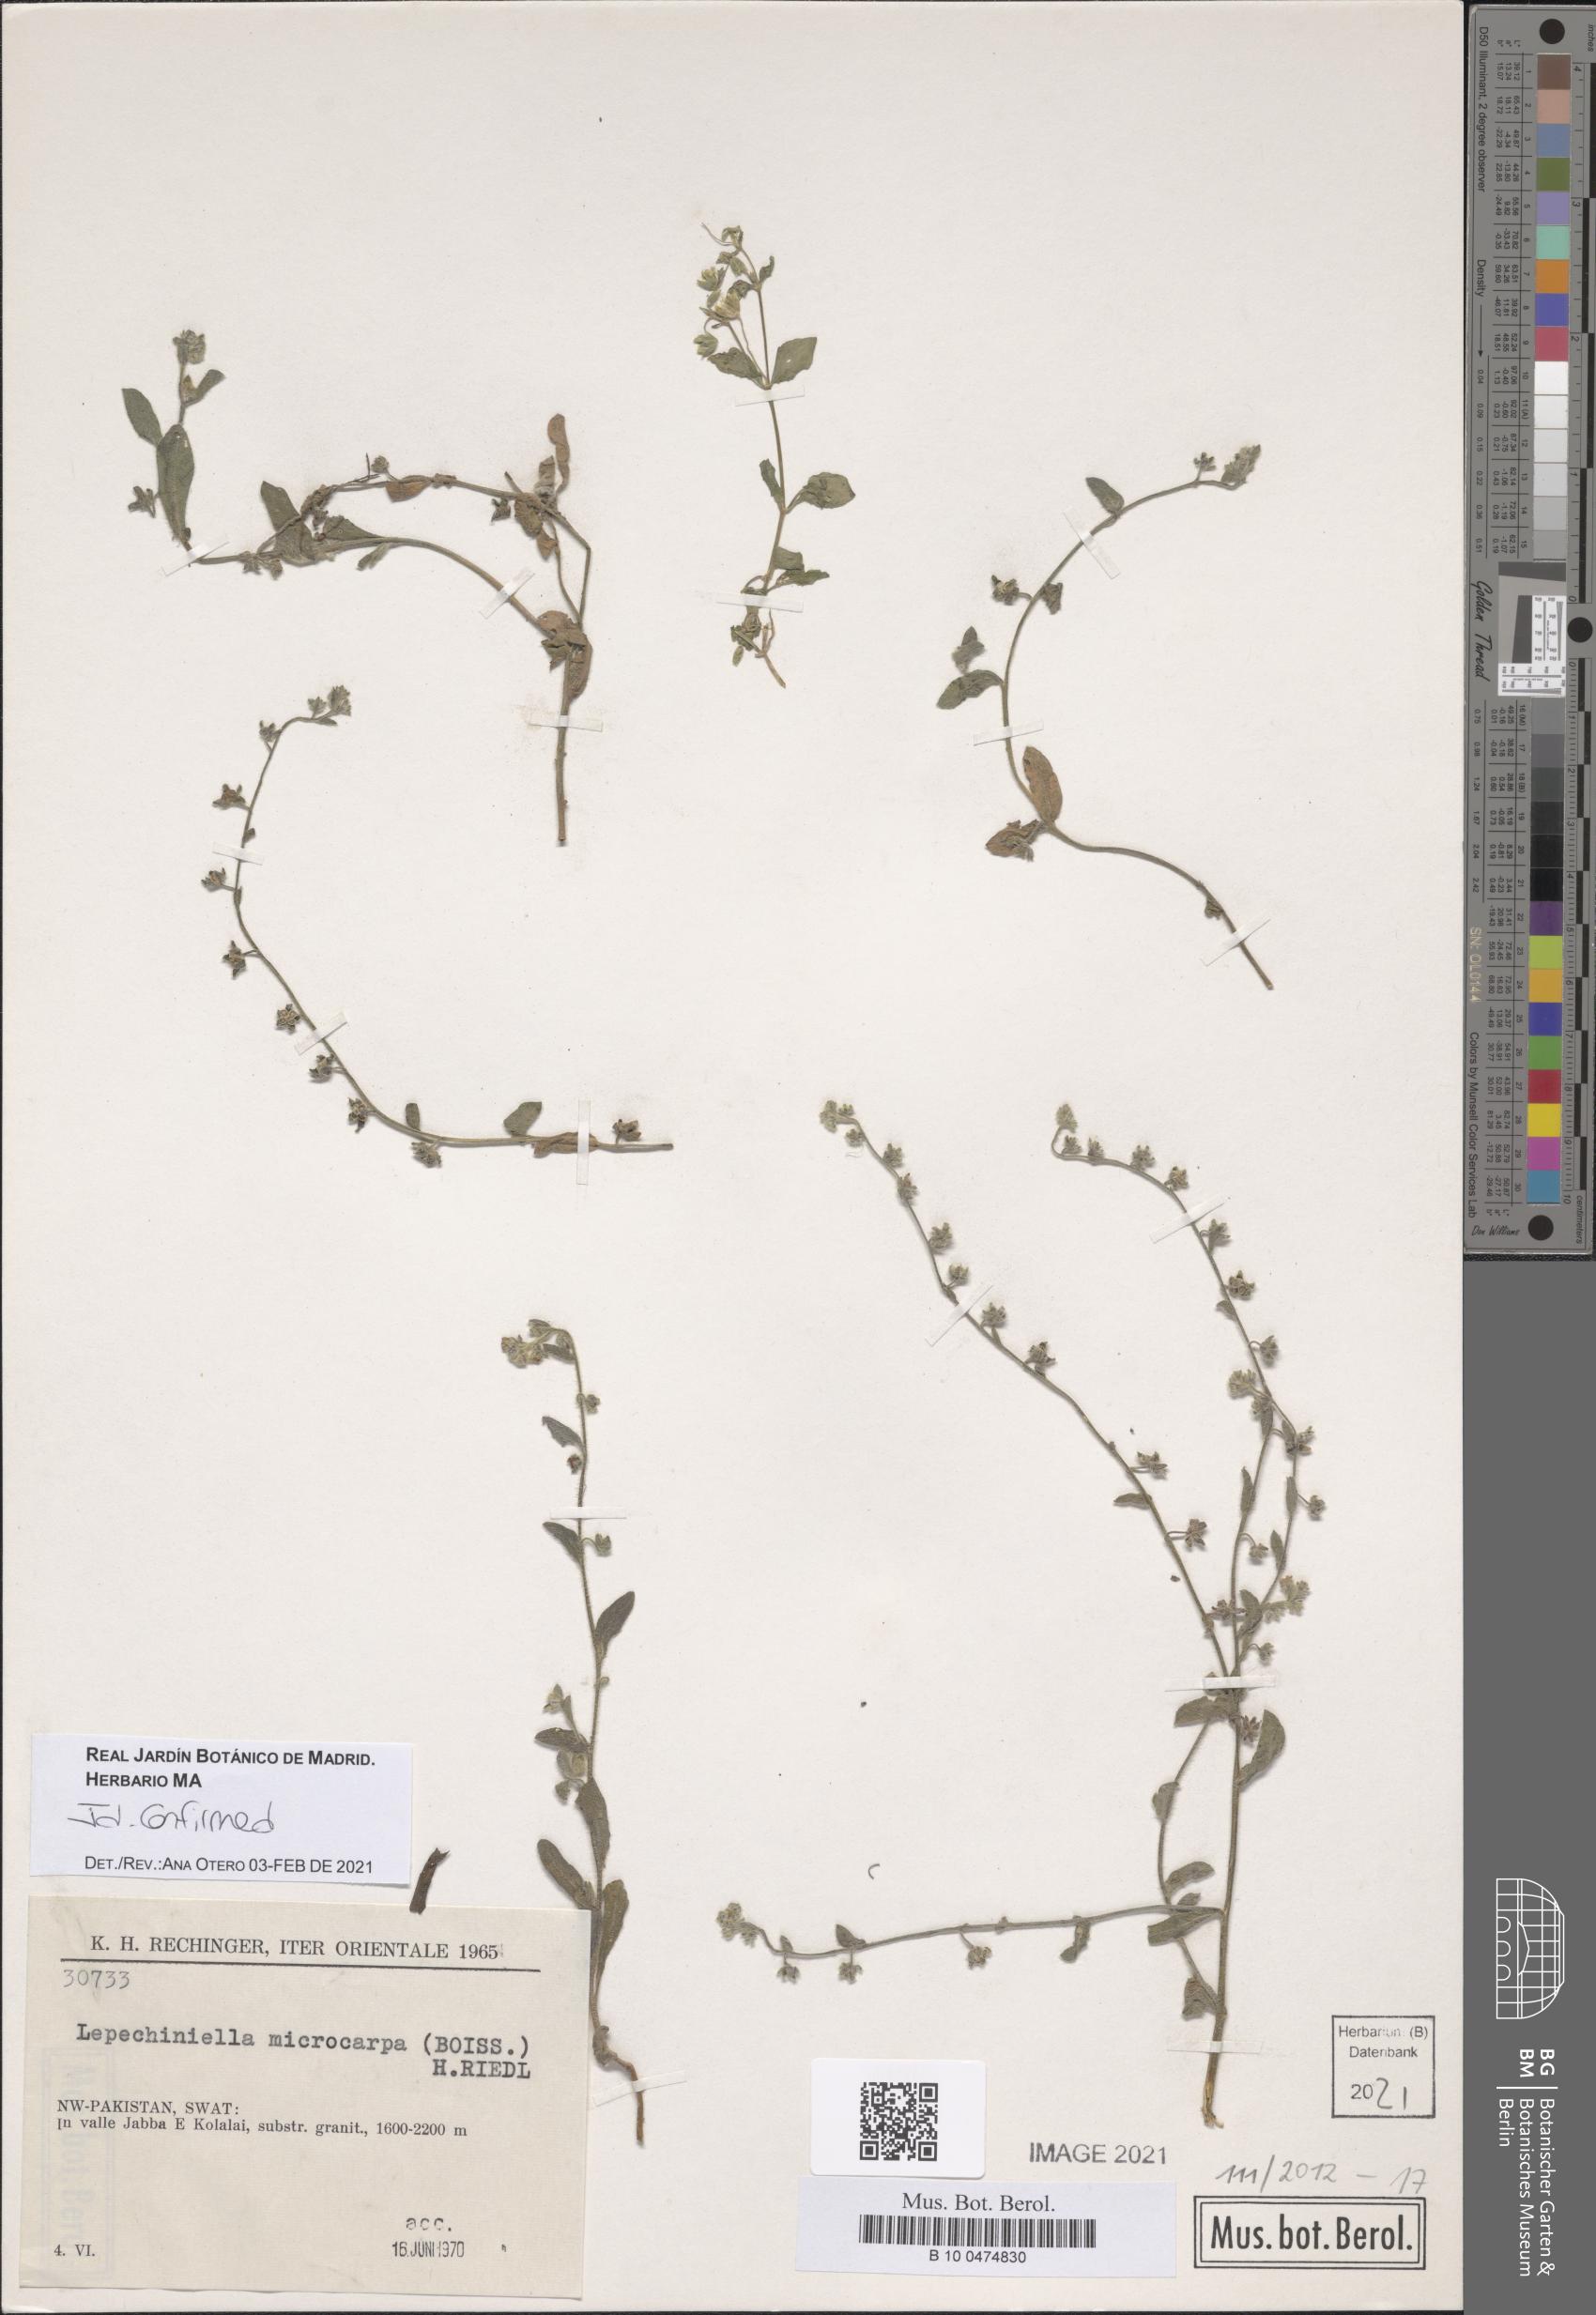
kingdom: Plantae
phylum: Tracheophyta
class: Magnoliopsida
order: Boraginales
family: Boraginaceae
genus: Lepechiniella
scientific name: Lepechiniella microcarpa
